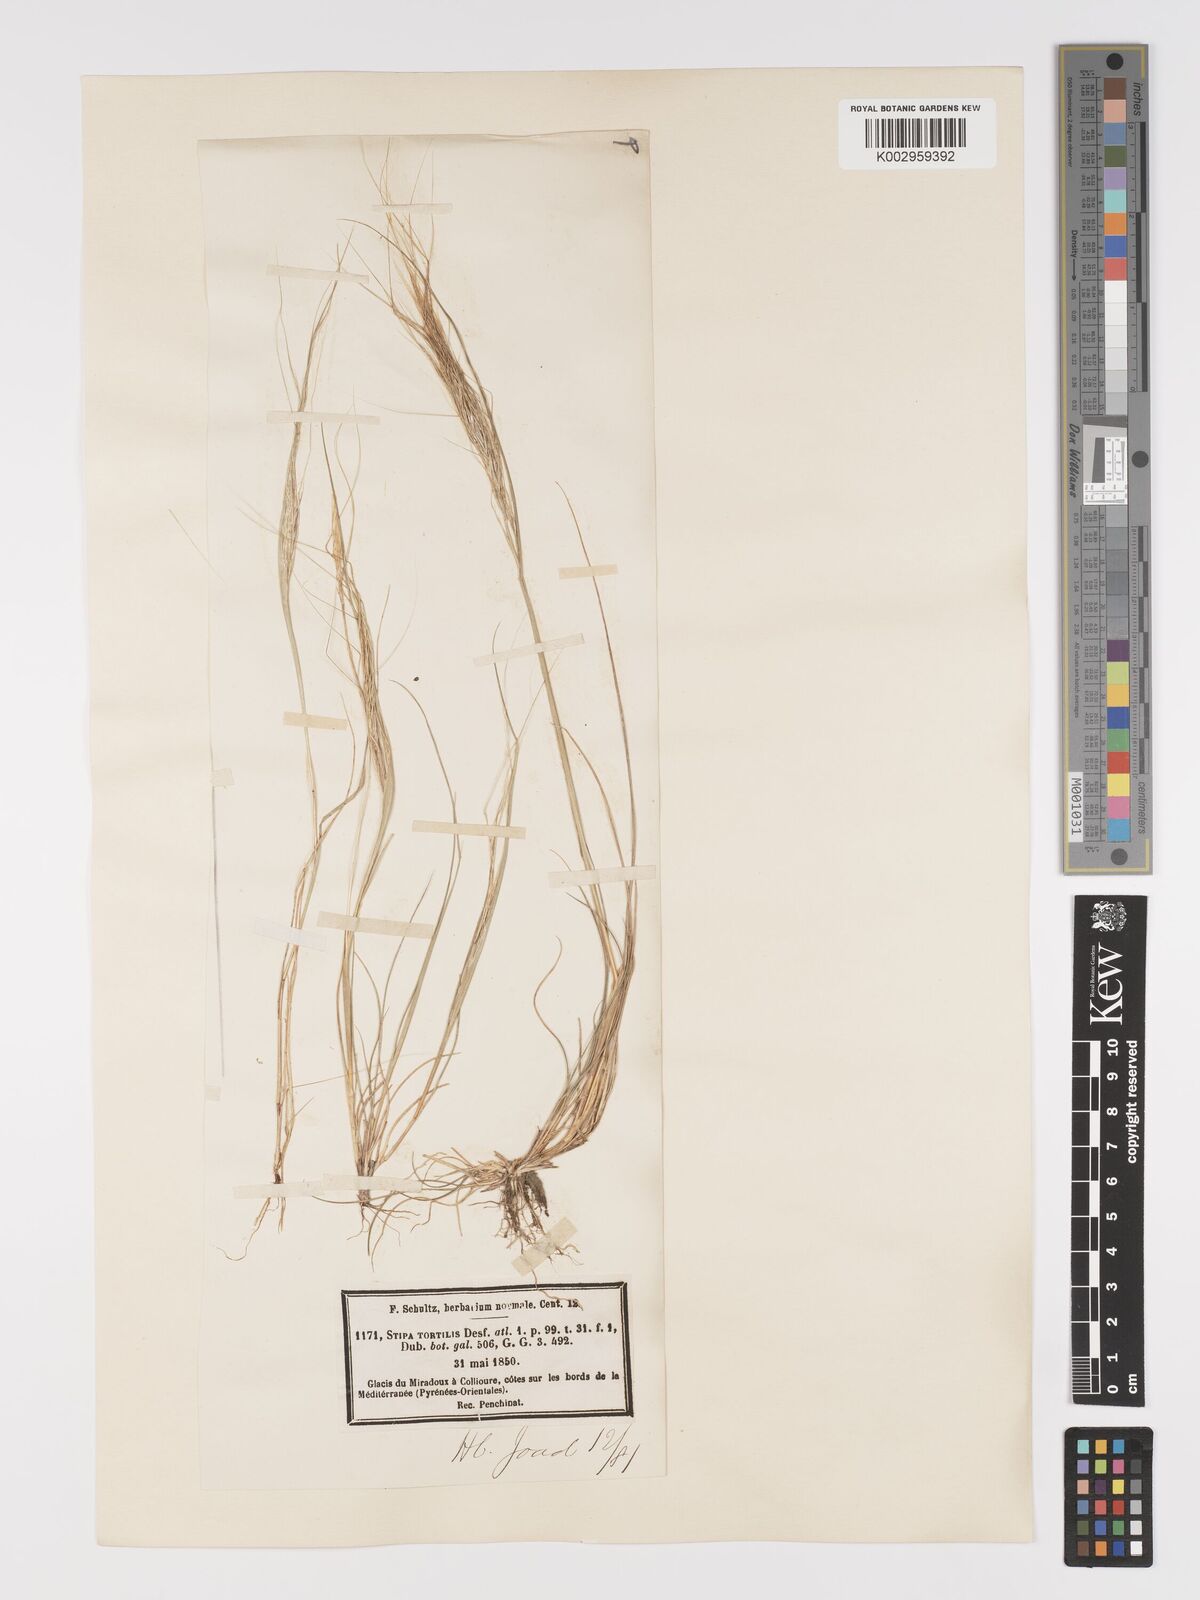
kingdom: Plantae
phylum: Tracheophyta
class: Liliopsida
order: Poales
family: Poaceae
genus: Stipellula
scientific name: Stipellula capensis
